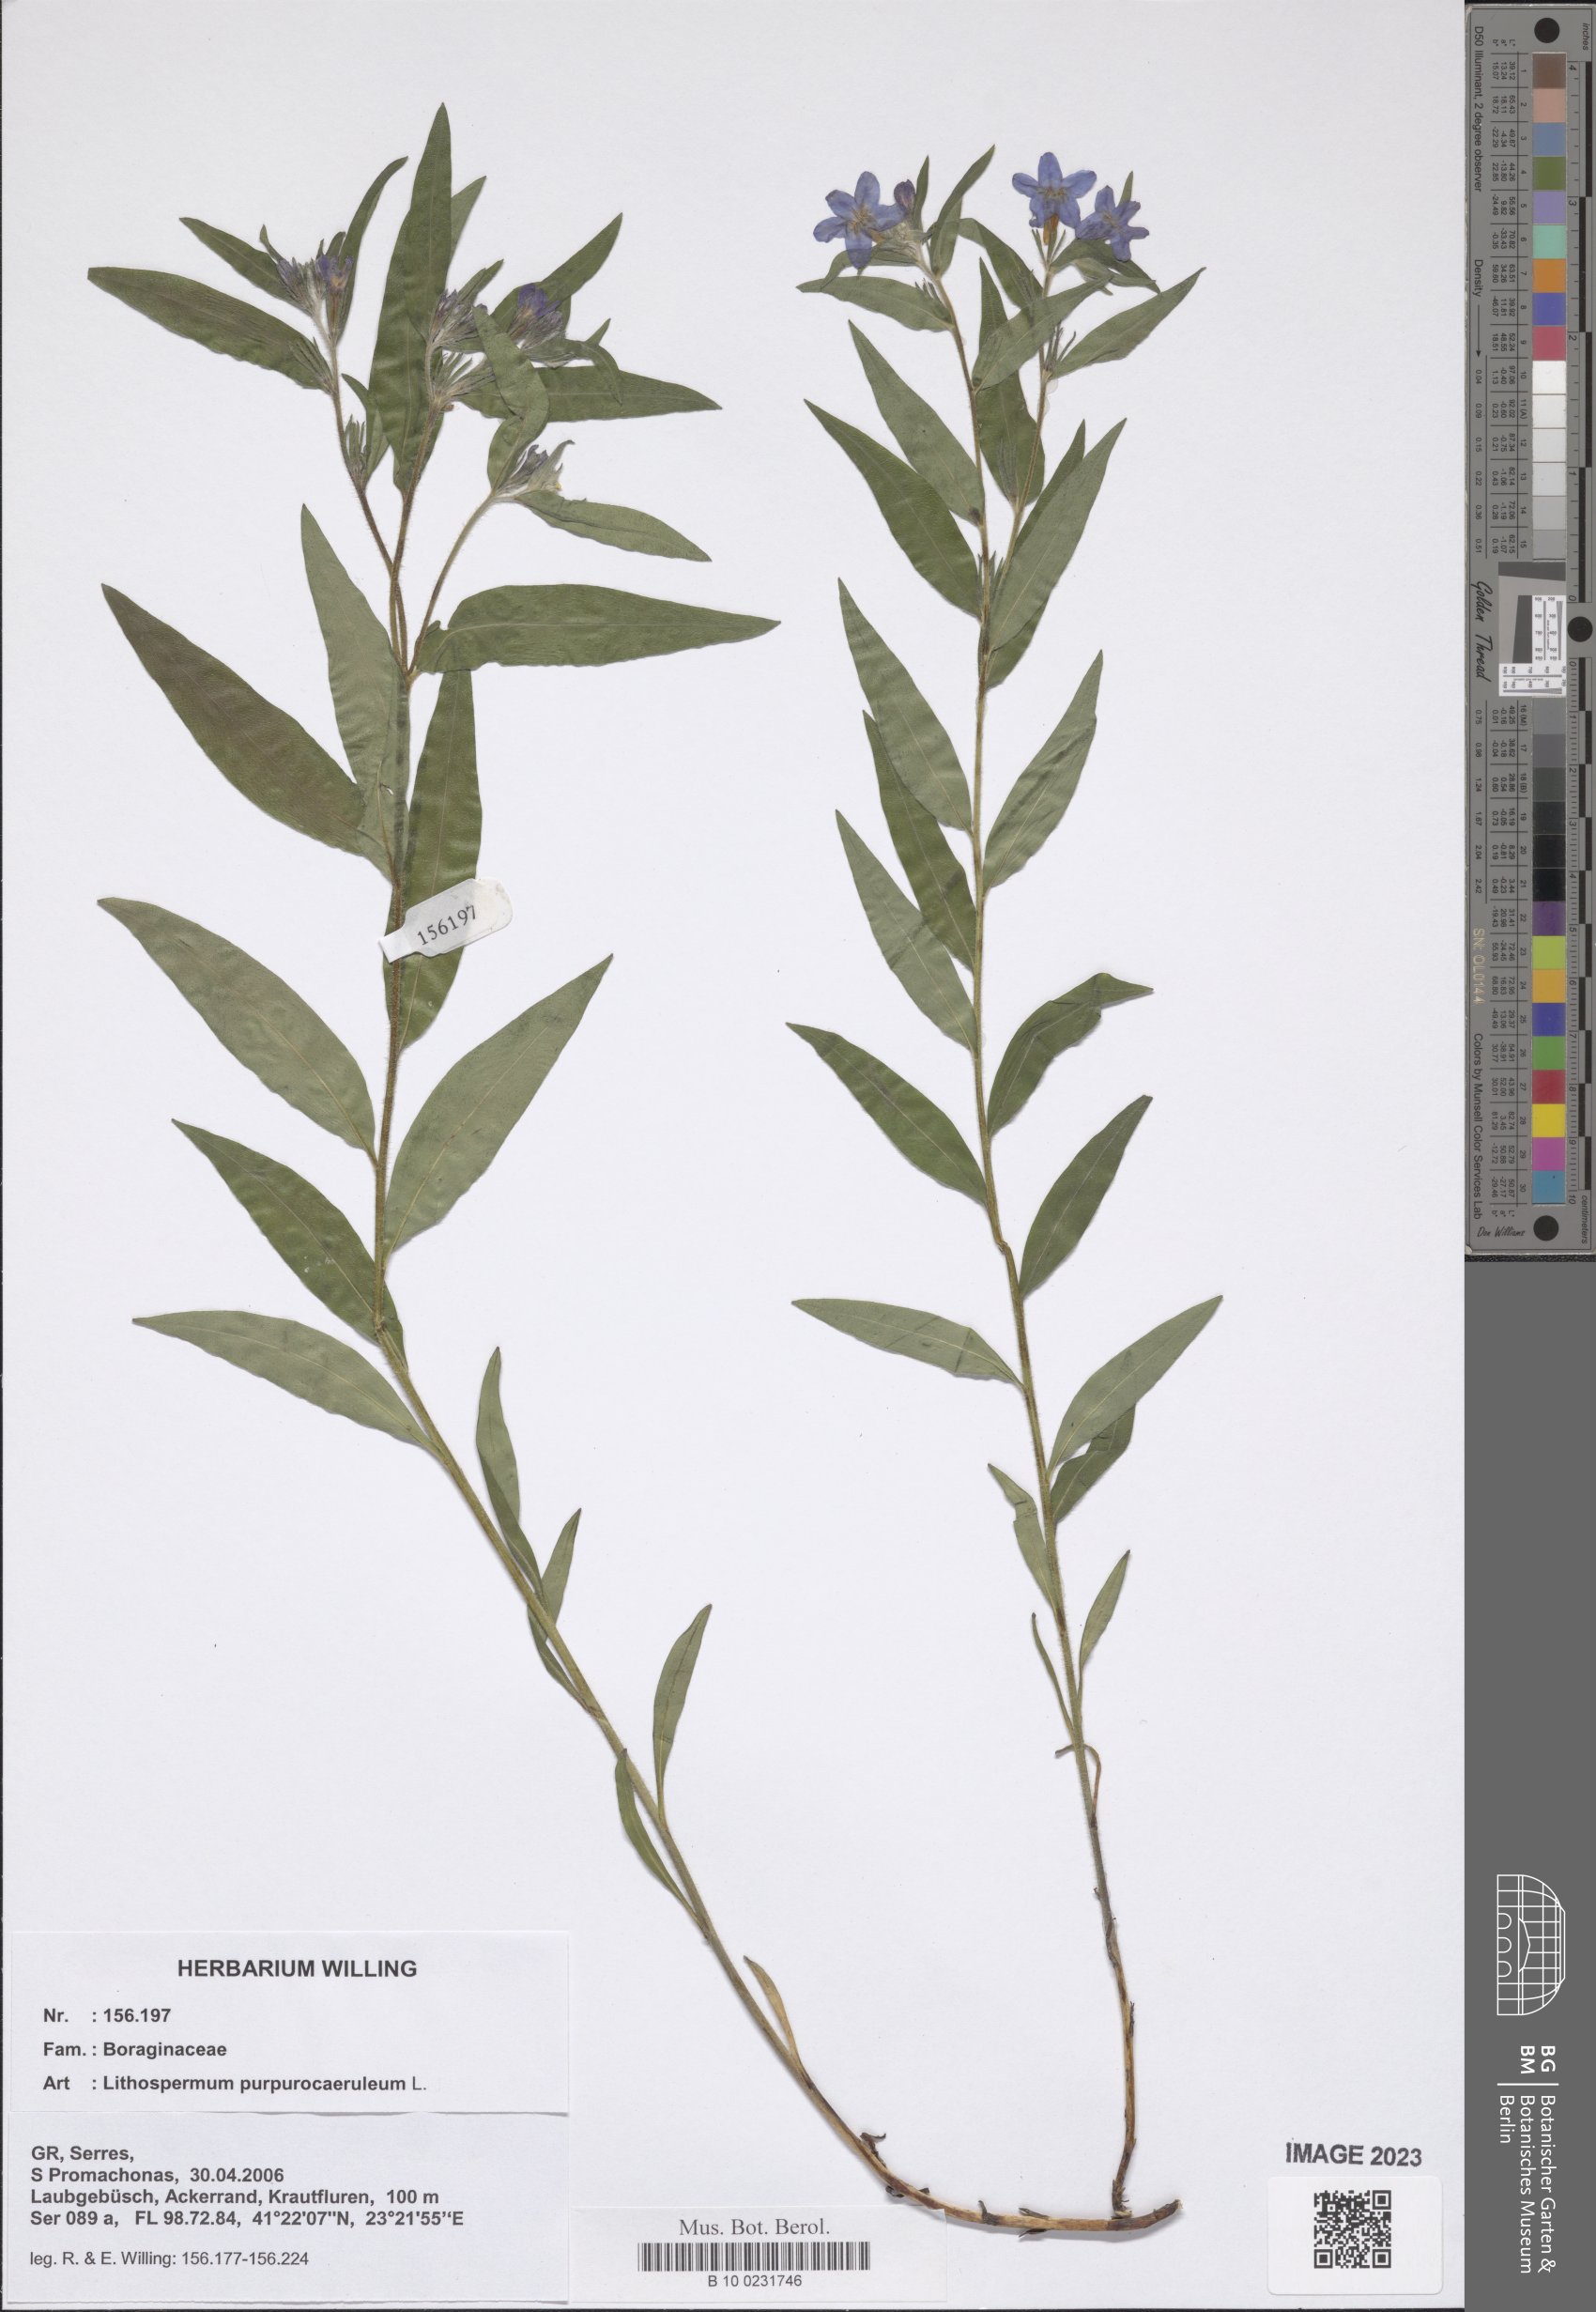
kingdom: Plantae
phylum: Tracheophyta
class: Magnoliopsida
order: Boraginales
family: Boraginaceae
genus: Aegonychon
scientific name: Aegonychon purpurocaeruleum
